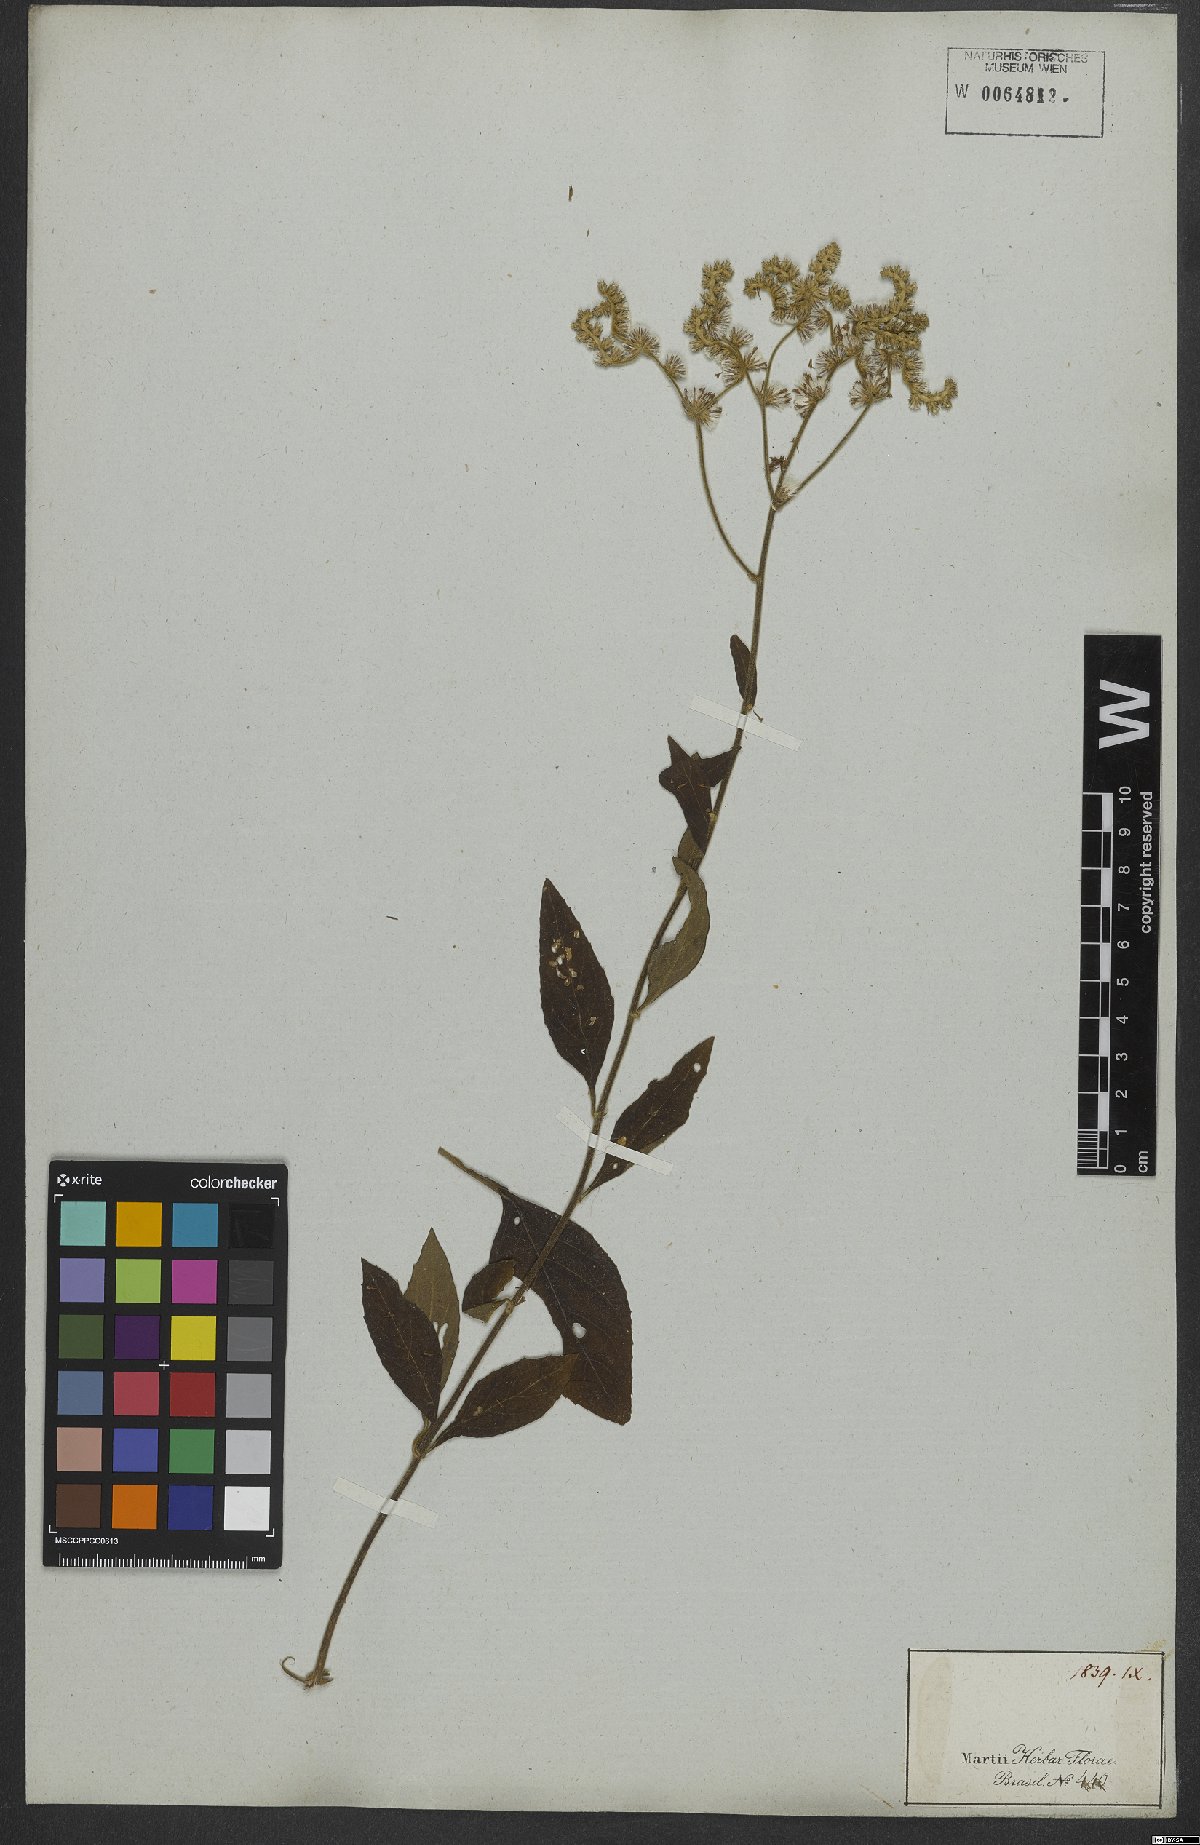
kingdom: Plantae
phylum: Tracheophyta
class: Magnoliopsida
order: Asterales
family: Asteraceae
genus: Cyrtocymura
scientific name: Cyrtocymura scorpioides
